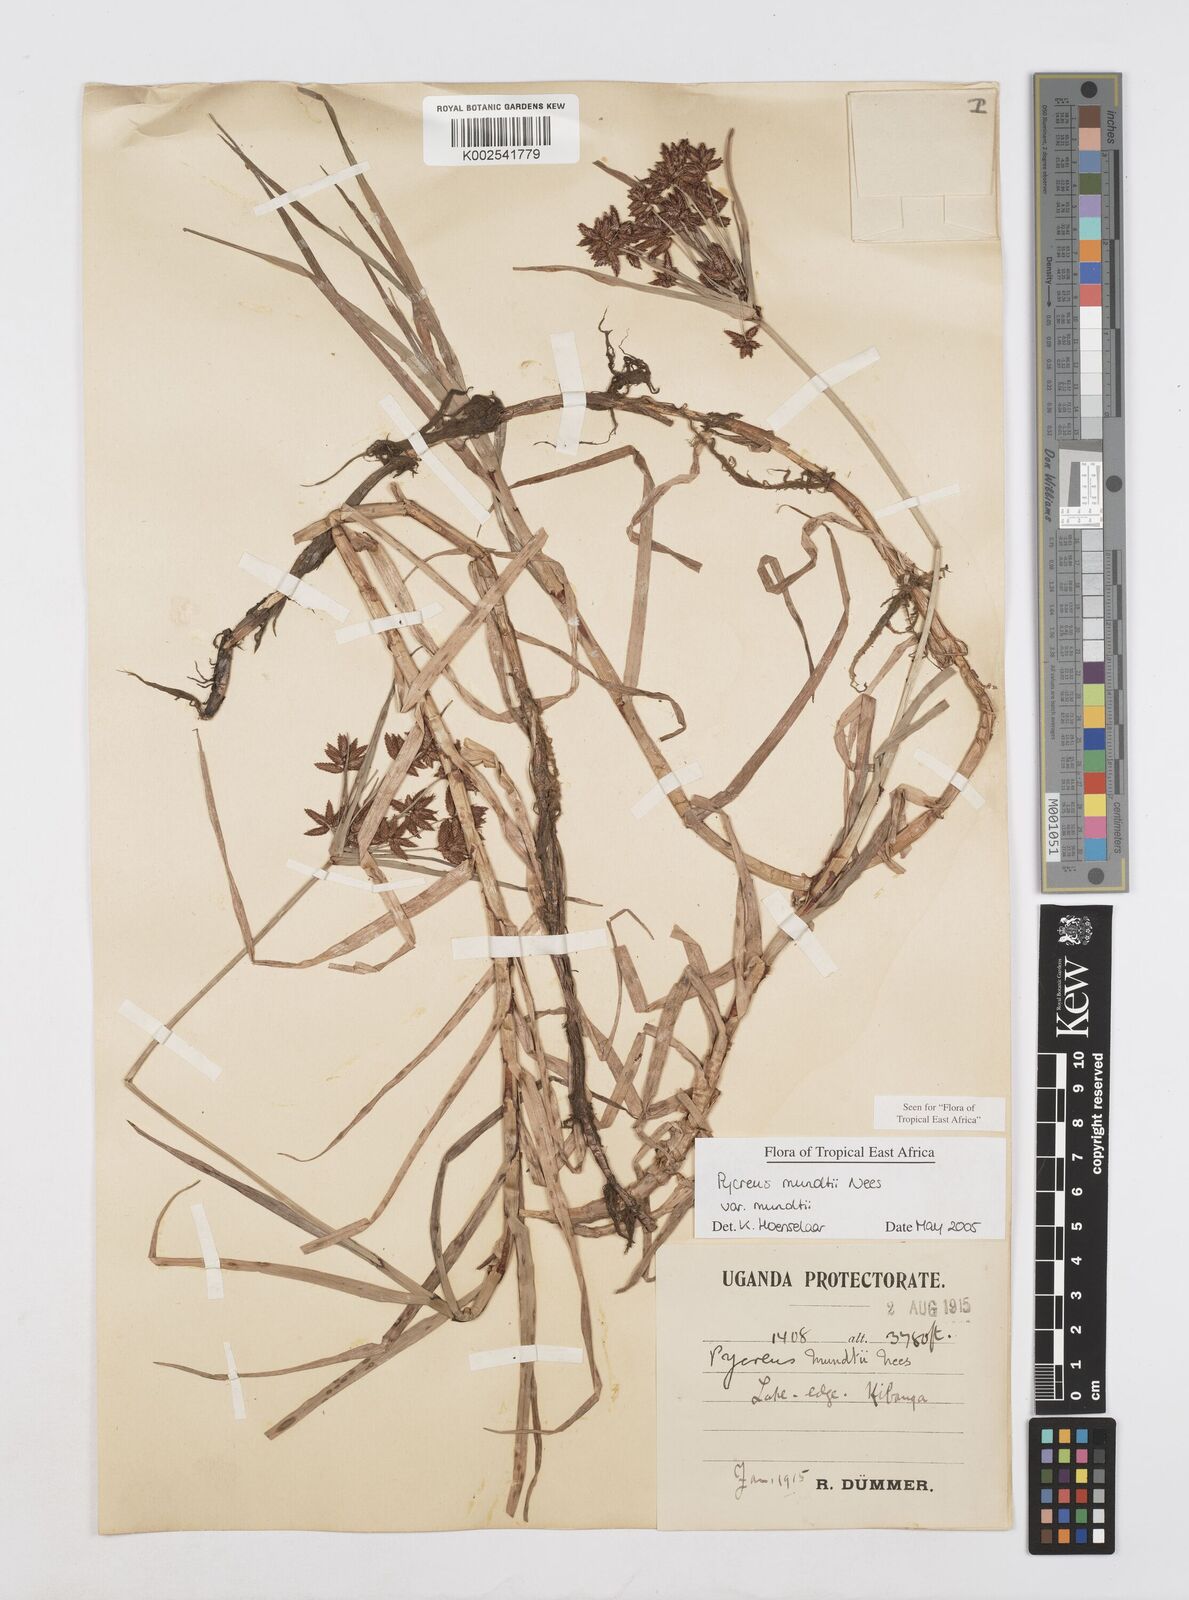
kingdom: Plantae
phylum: Tracheophyta
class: Liliopsida
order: Poales
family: Cyperaceae
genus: Cyperus
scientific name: Cyperus mundii
